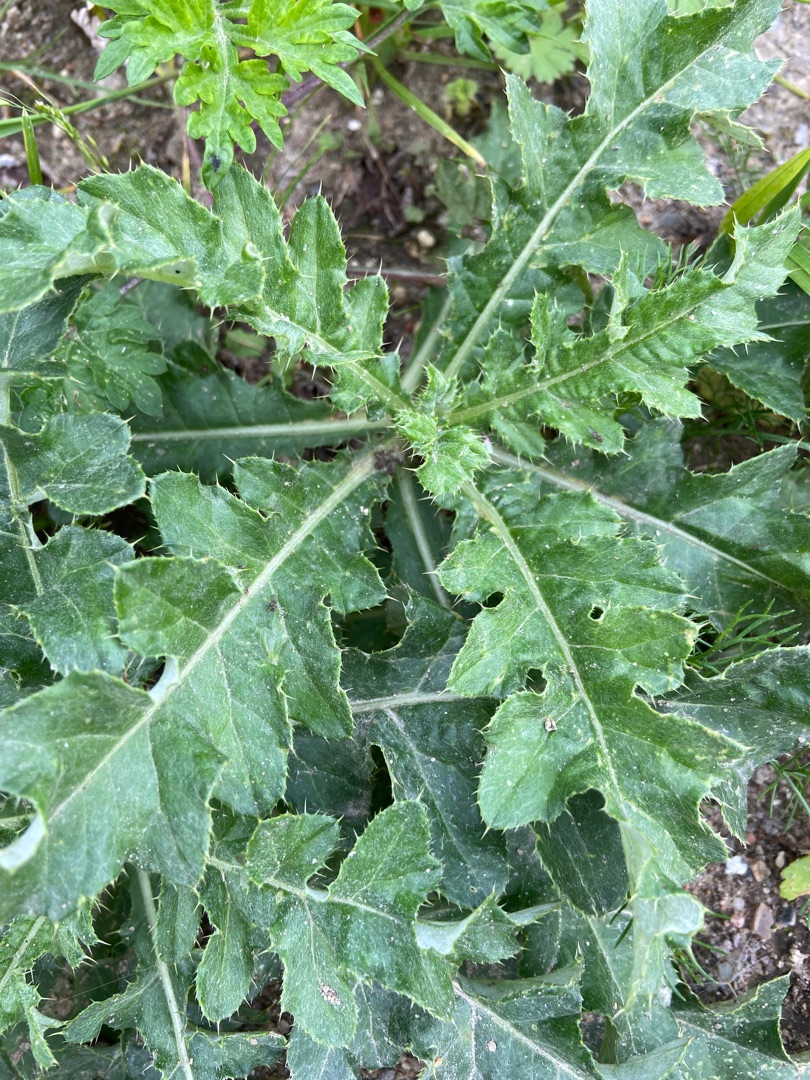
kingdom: Plantae
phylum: Tracheophyta
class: Magnoliopsida
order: Asterales
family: Asteraceae
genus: Cirsium
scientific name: Cirsium arvense
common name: Ager-tidsel
